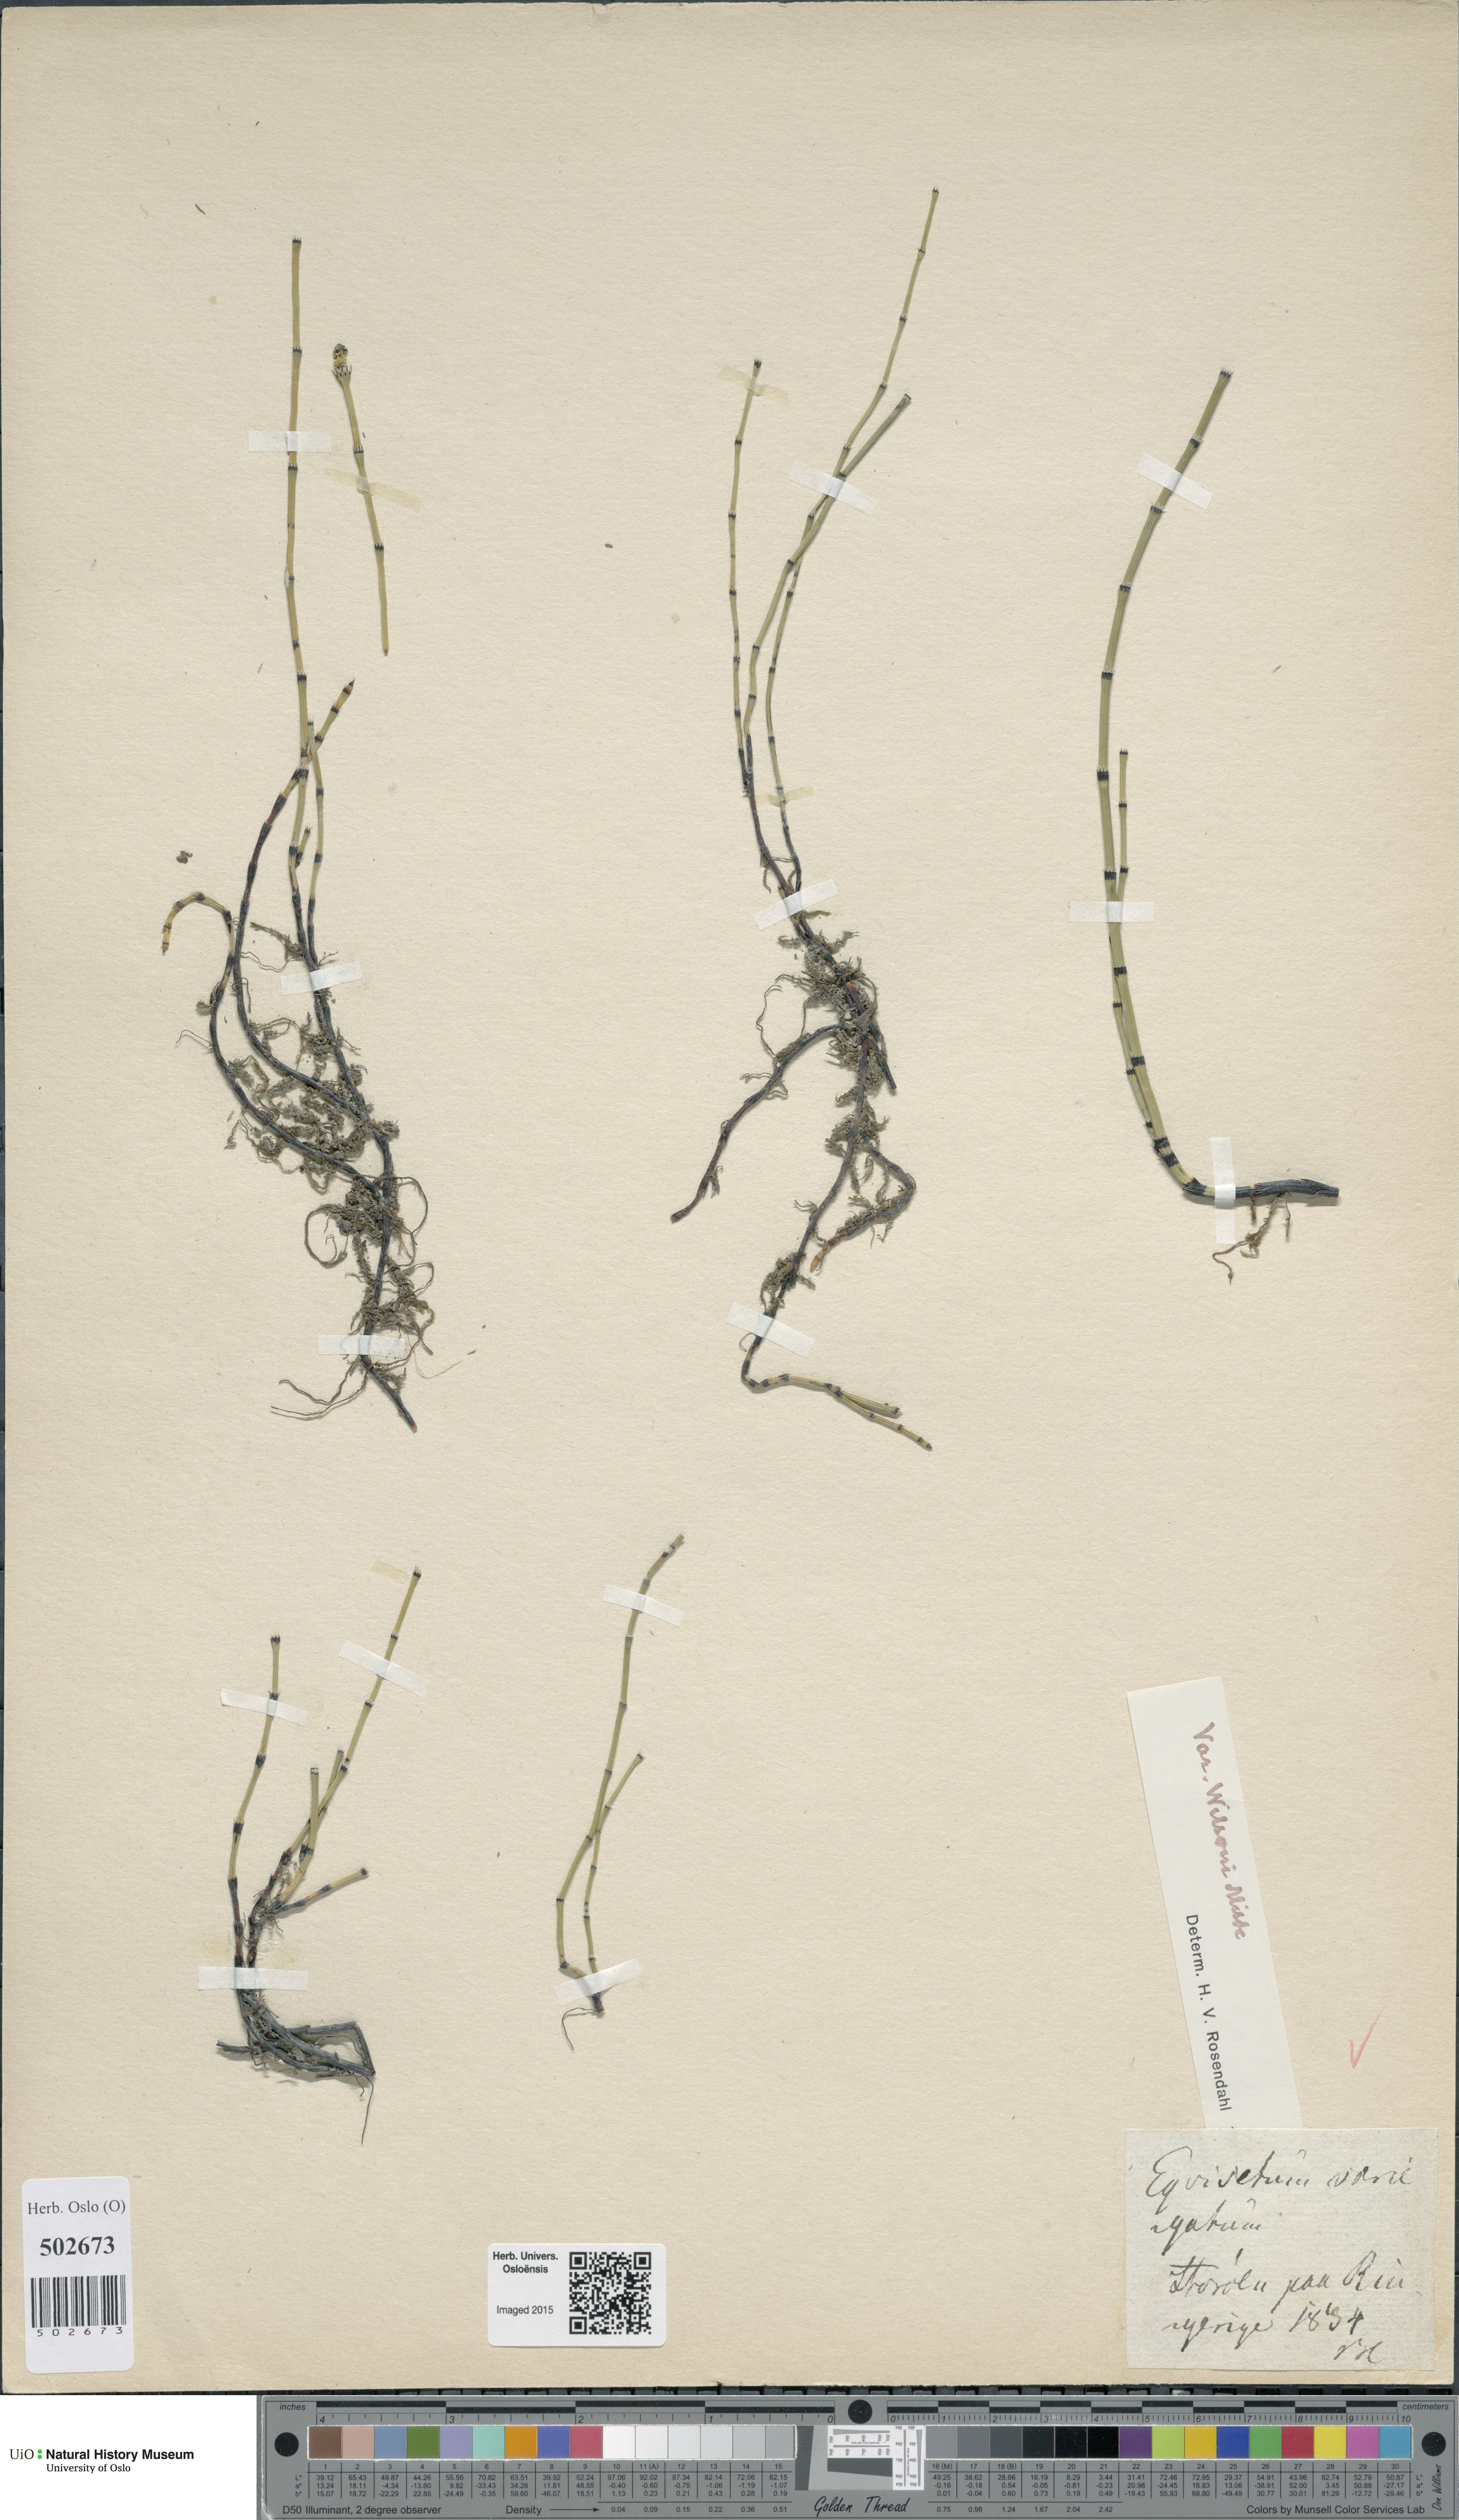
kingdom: Plantae
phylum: Tracheophyta
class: Polypodiopsida
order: Equisetales
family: Equisetaceae
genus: Equisetum
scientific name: Equisetum variegatum
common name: Variegated horsetail
